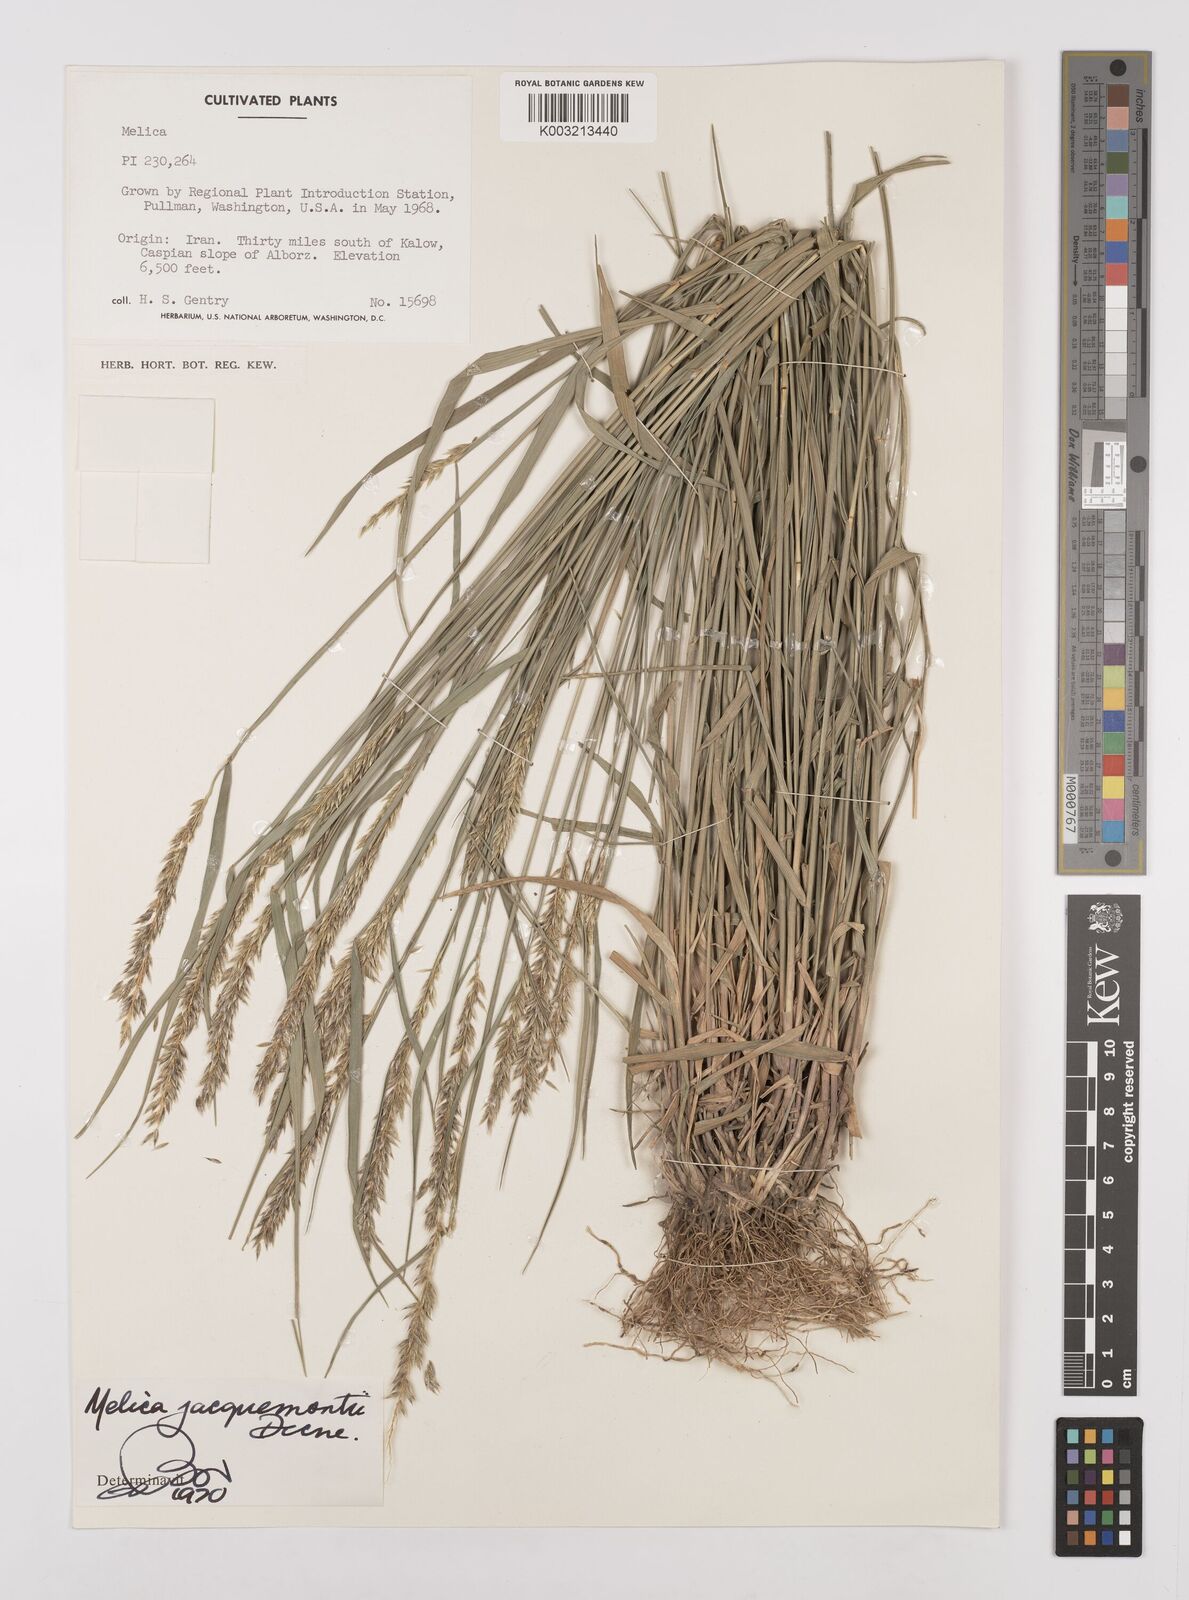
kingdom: Plantae
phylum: Tracheophyta
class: Liliopsida
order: Poales
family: Poaceae
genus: Melica
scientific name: Melica persica
